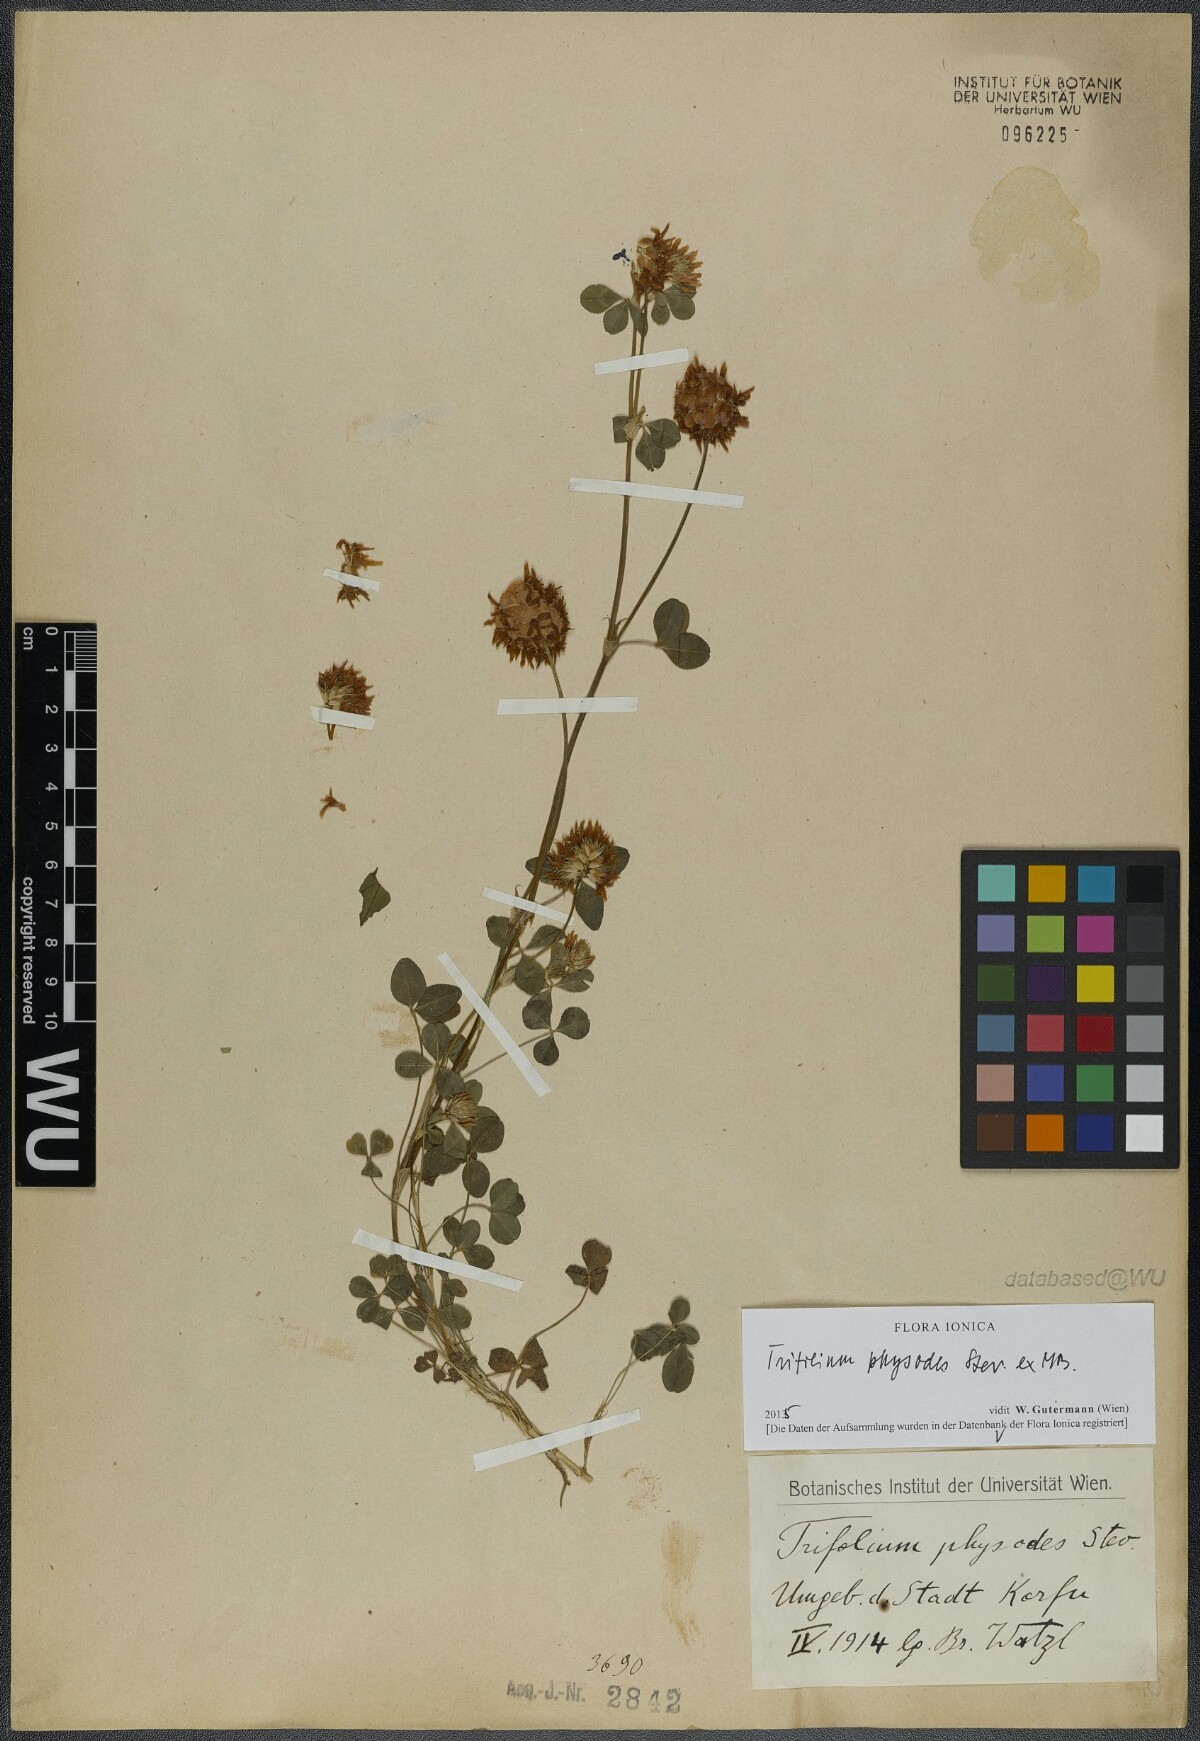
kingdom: Plantae
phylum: Tracheophyta
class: Magnoliopsida
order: Fabales
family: Fabaceae
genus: Trifolium
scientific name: Trifolium physodes
